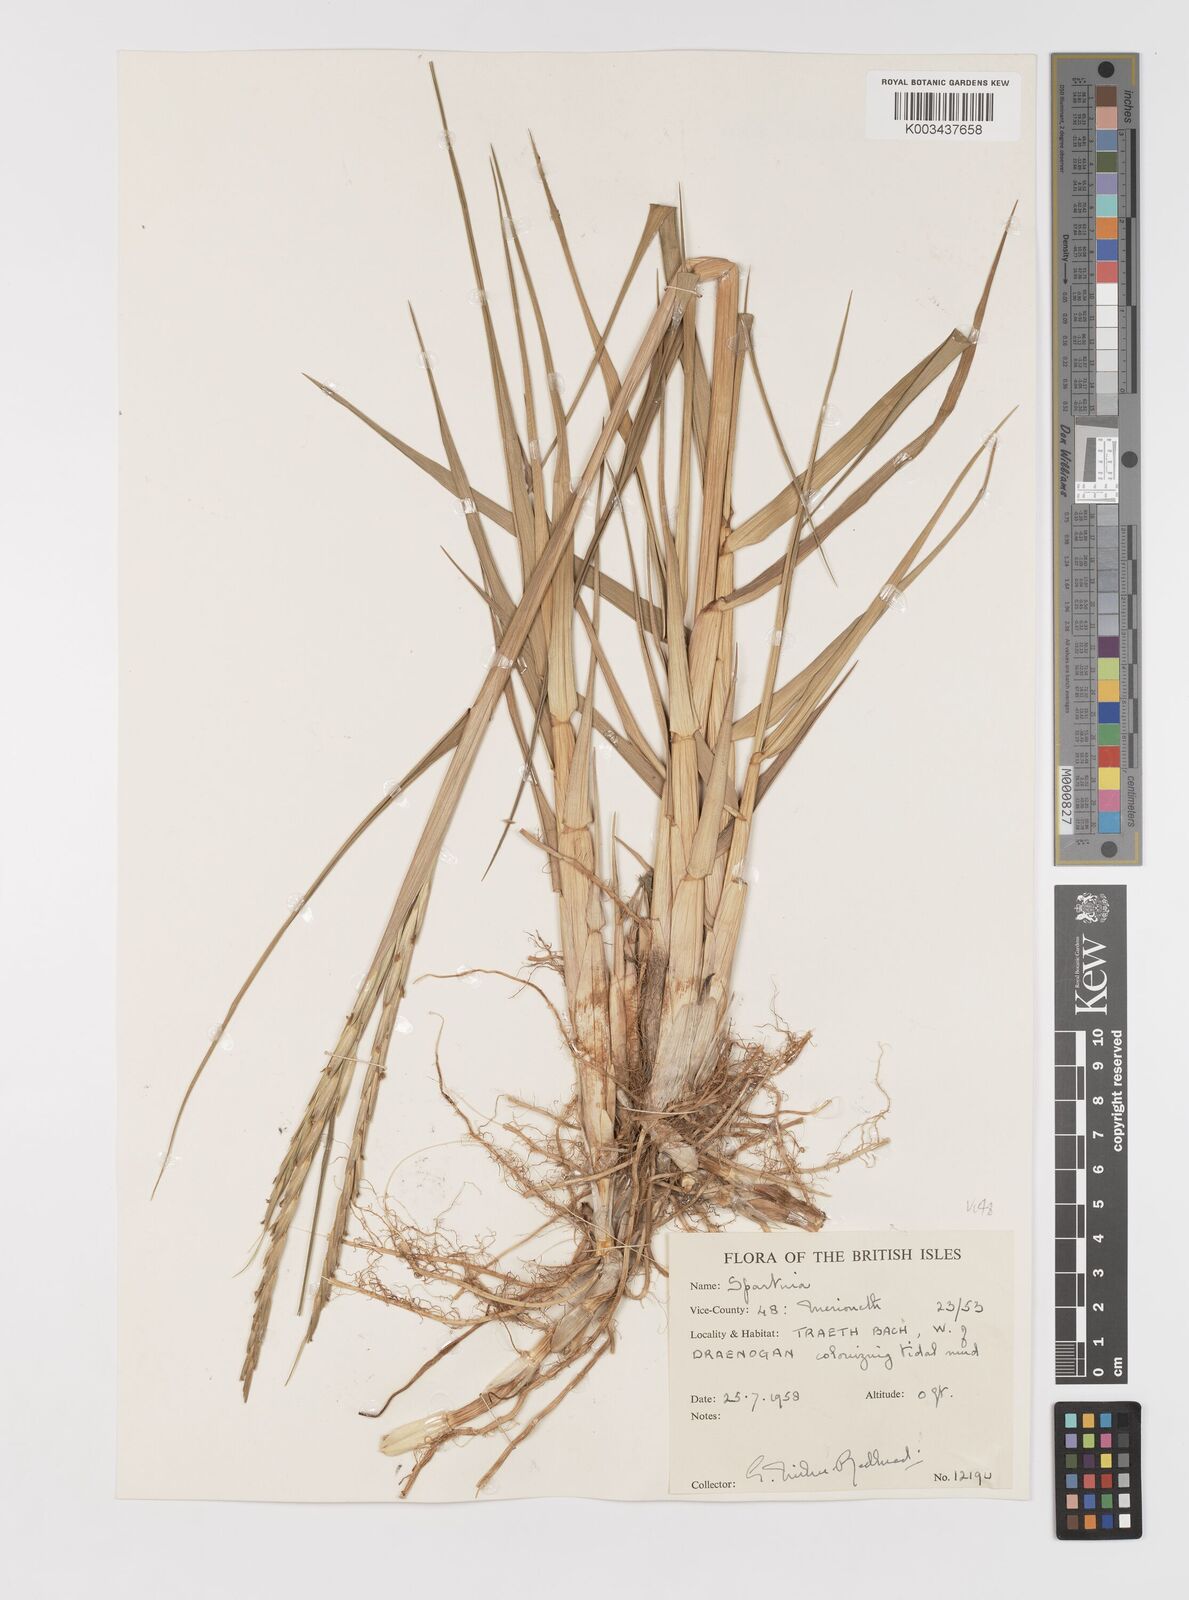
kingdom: Plantae
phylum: Tracheophyta
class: Liliopsida
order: Poales
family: Poaceae
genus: Sporobolus
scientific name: Sporobolus anglicus
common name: English cordgrass
